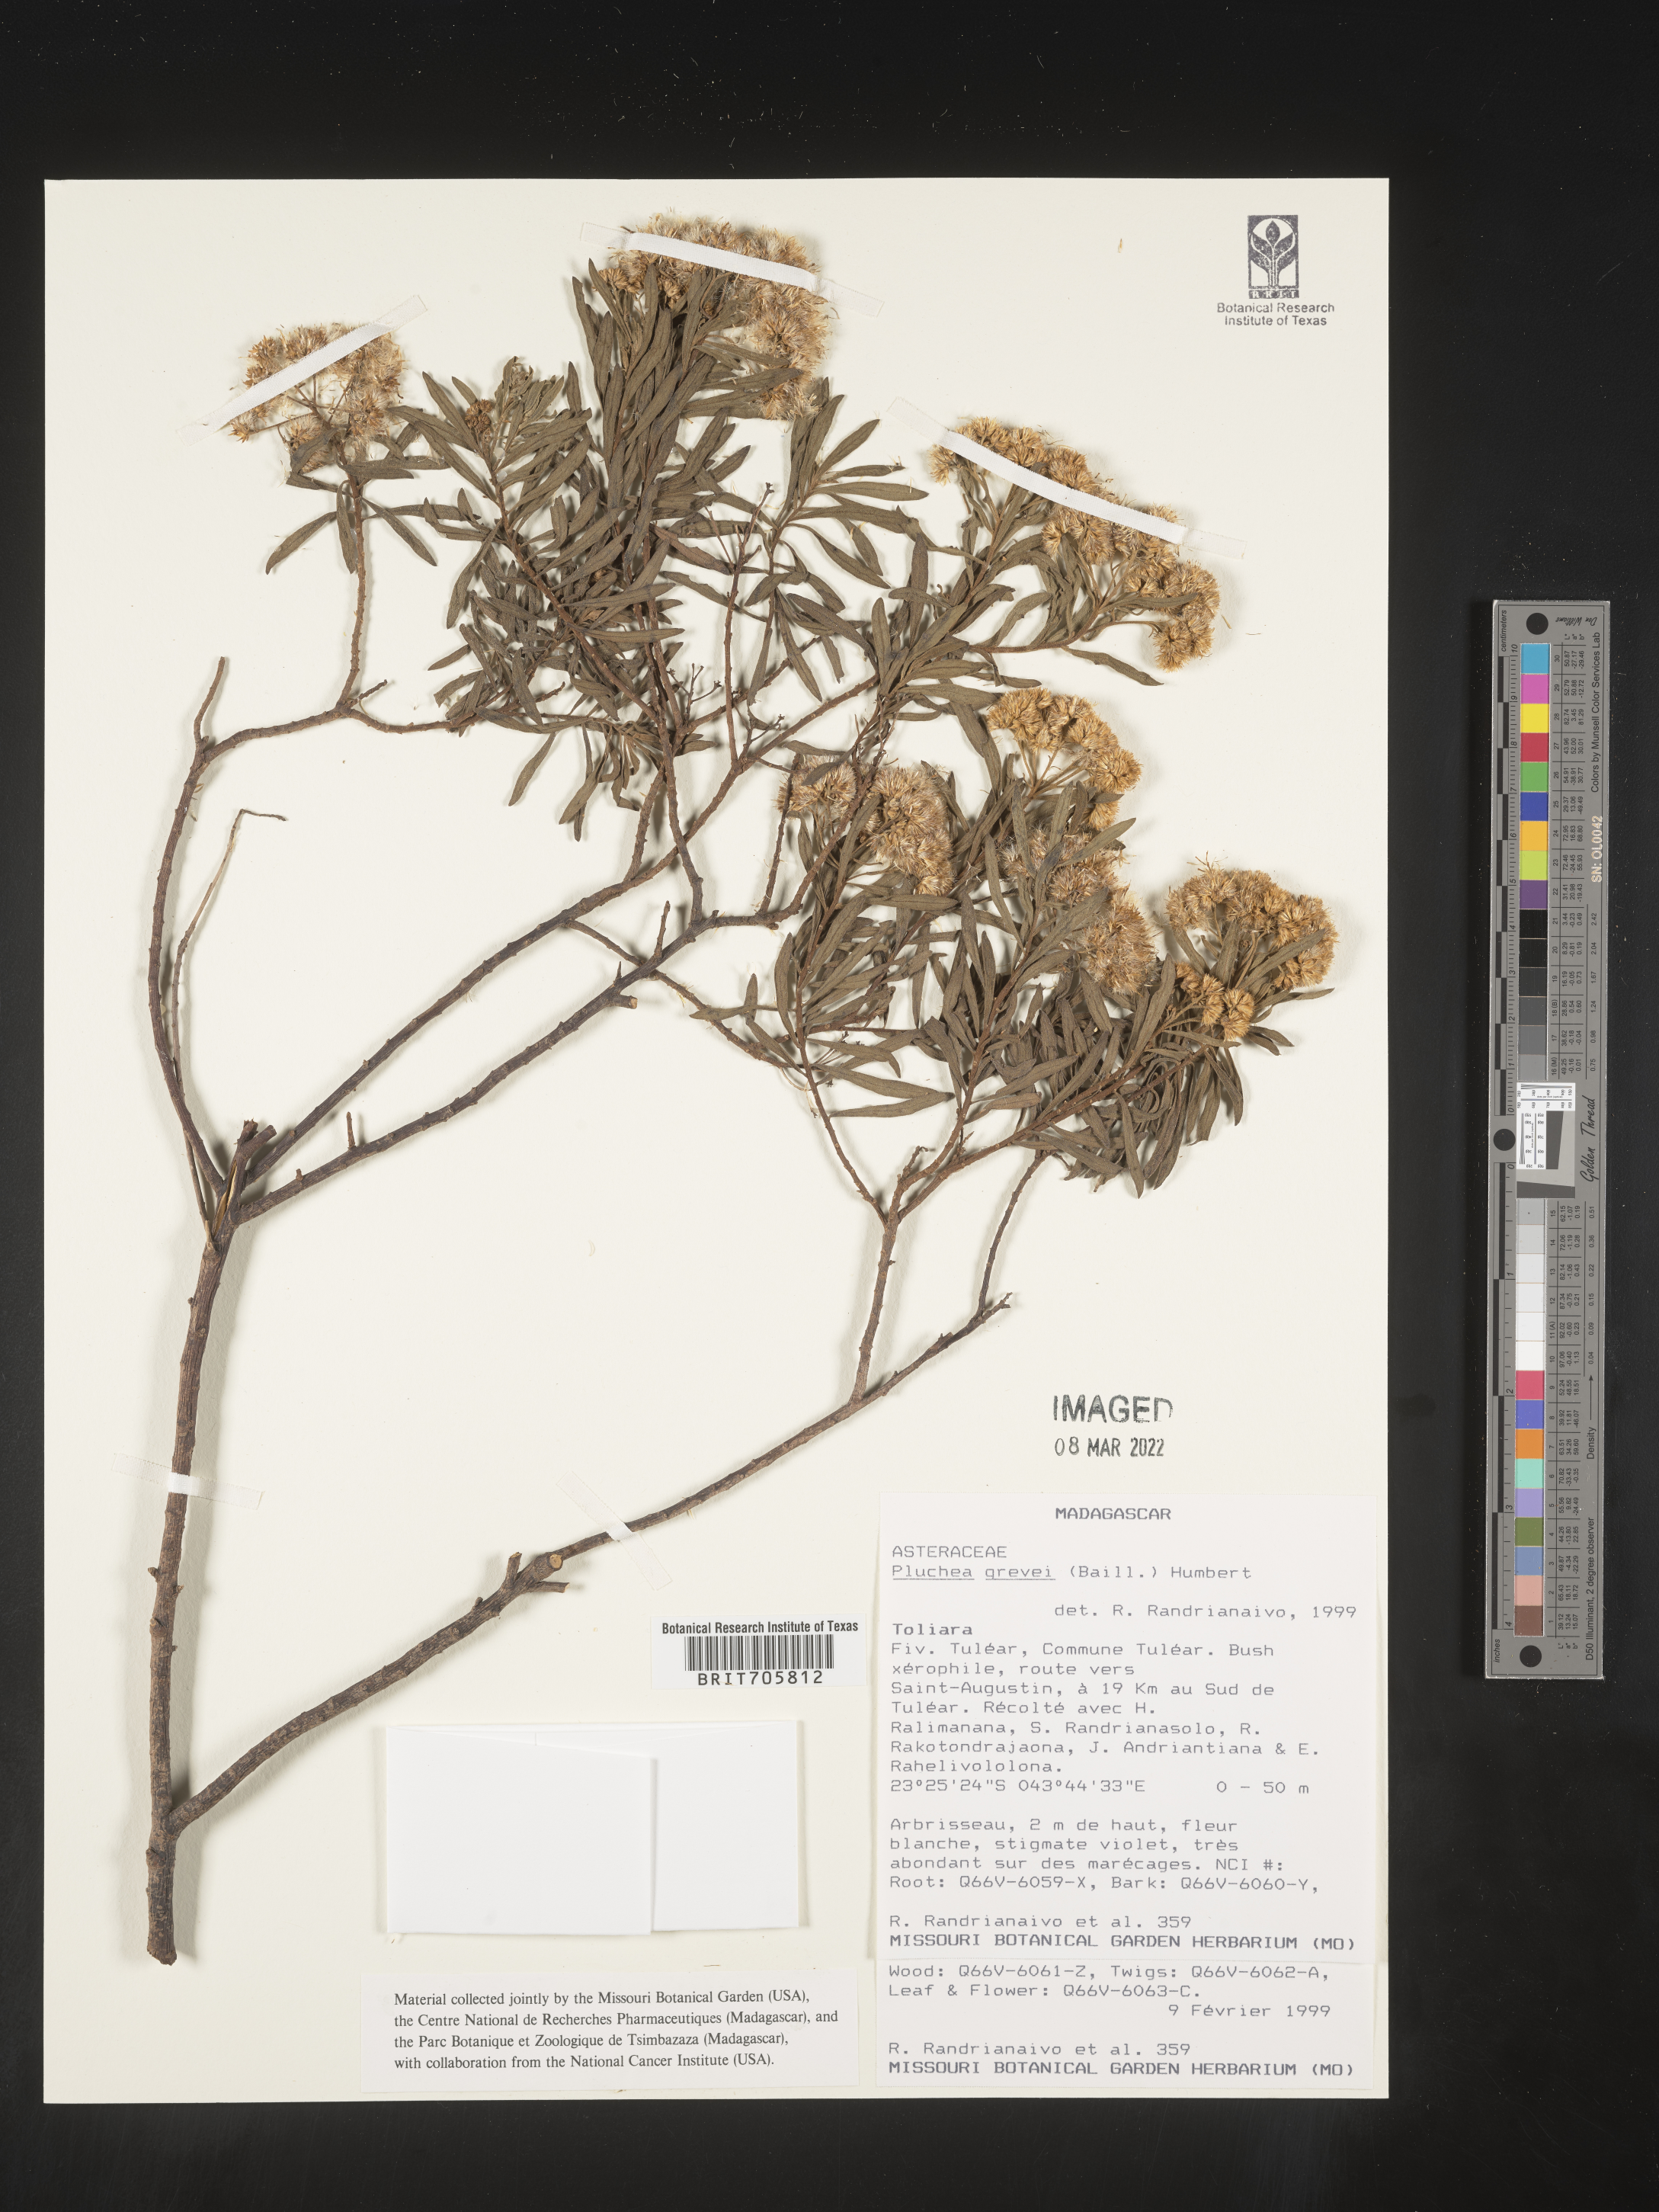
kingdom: Plantae
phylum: Tracheophyta
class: Magnoliopsida
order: Asterales
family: Asteraceae
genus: Pluchea
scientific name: Pluchea
